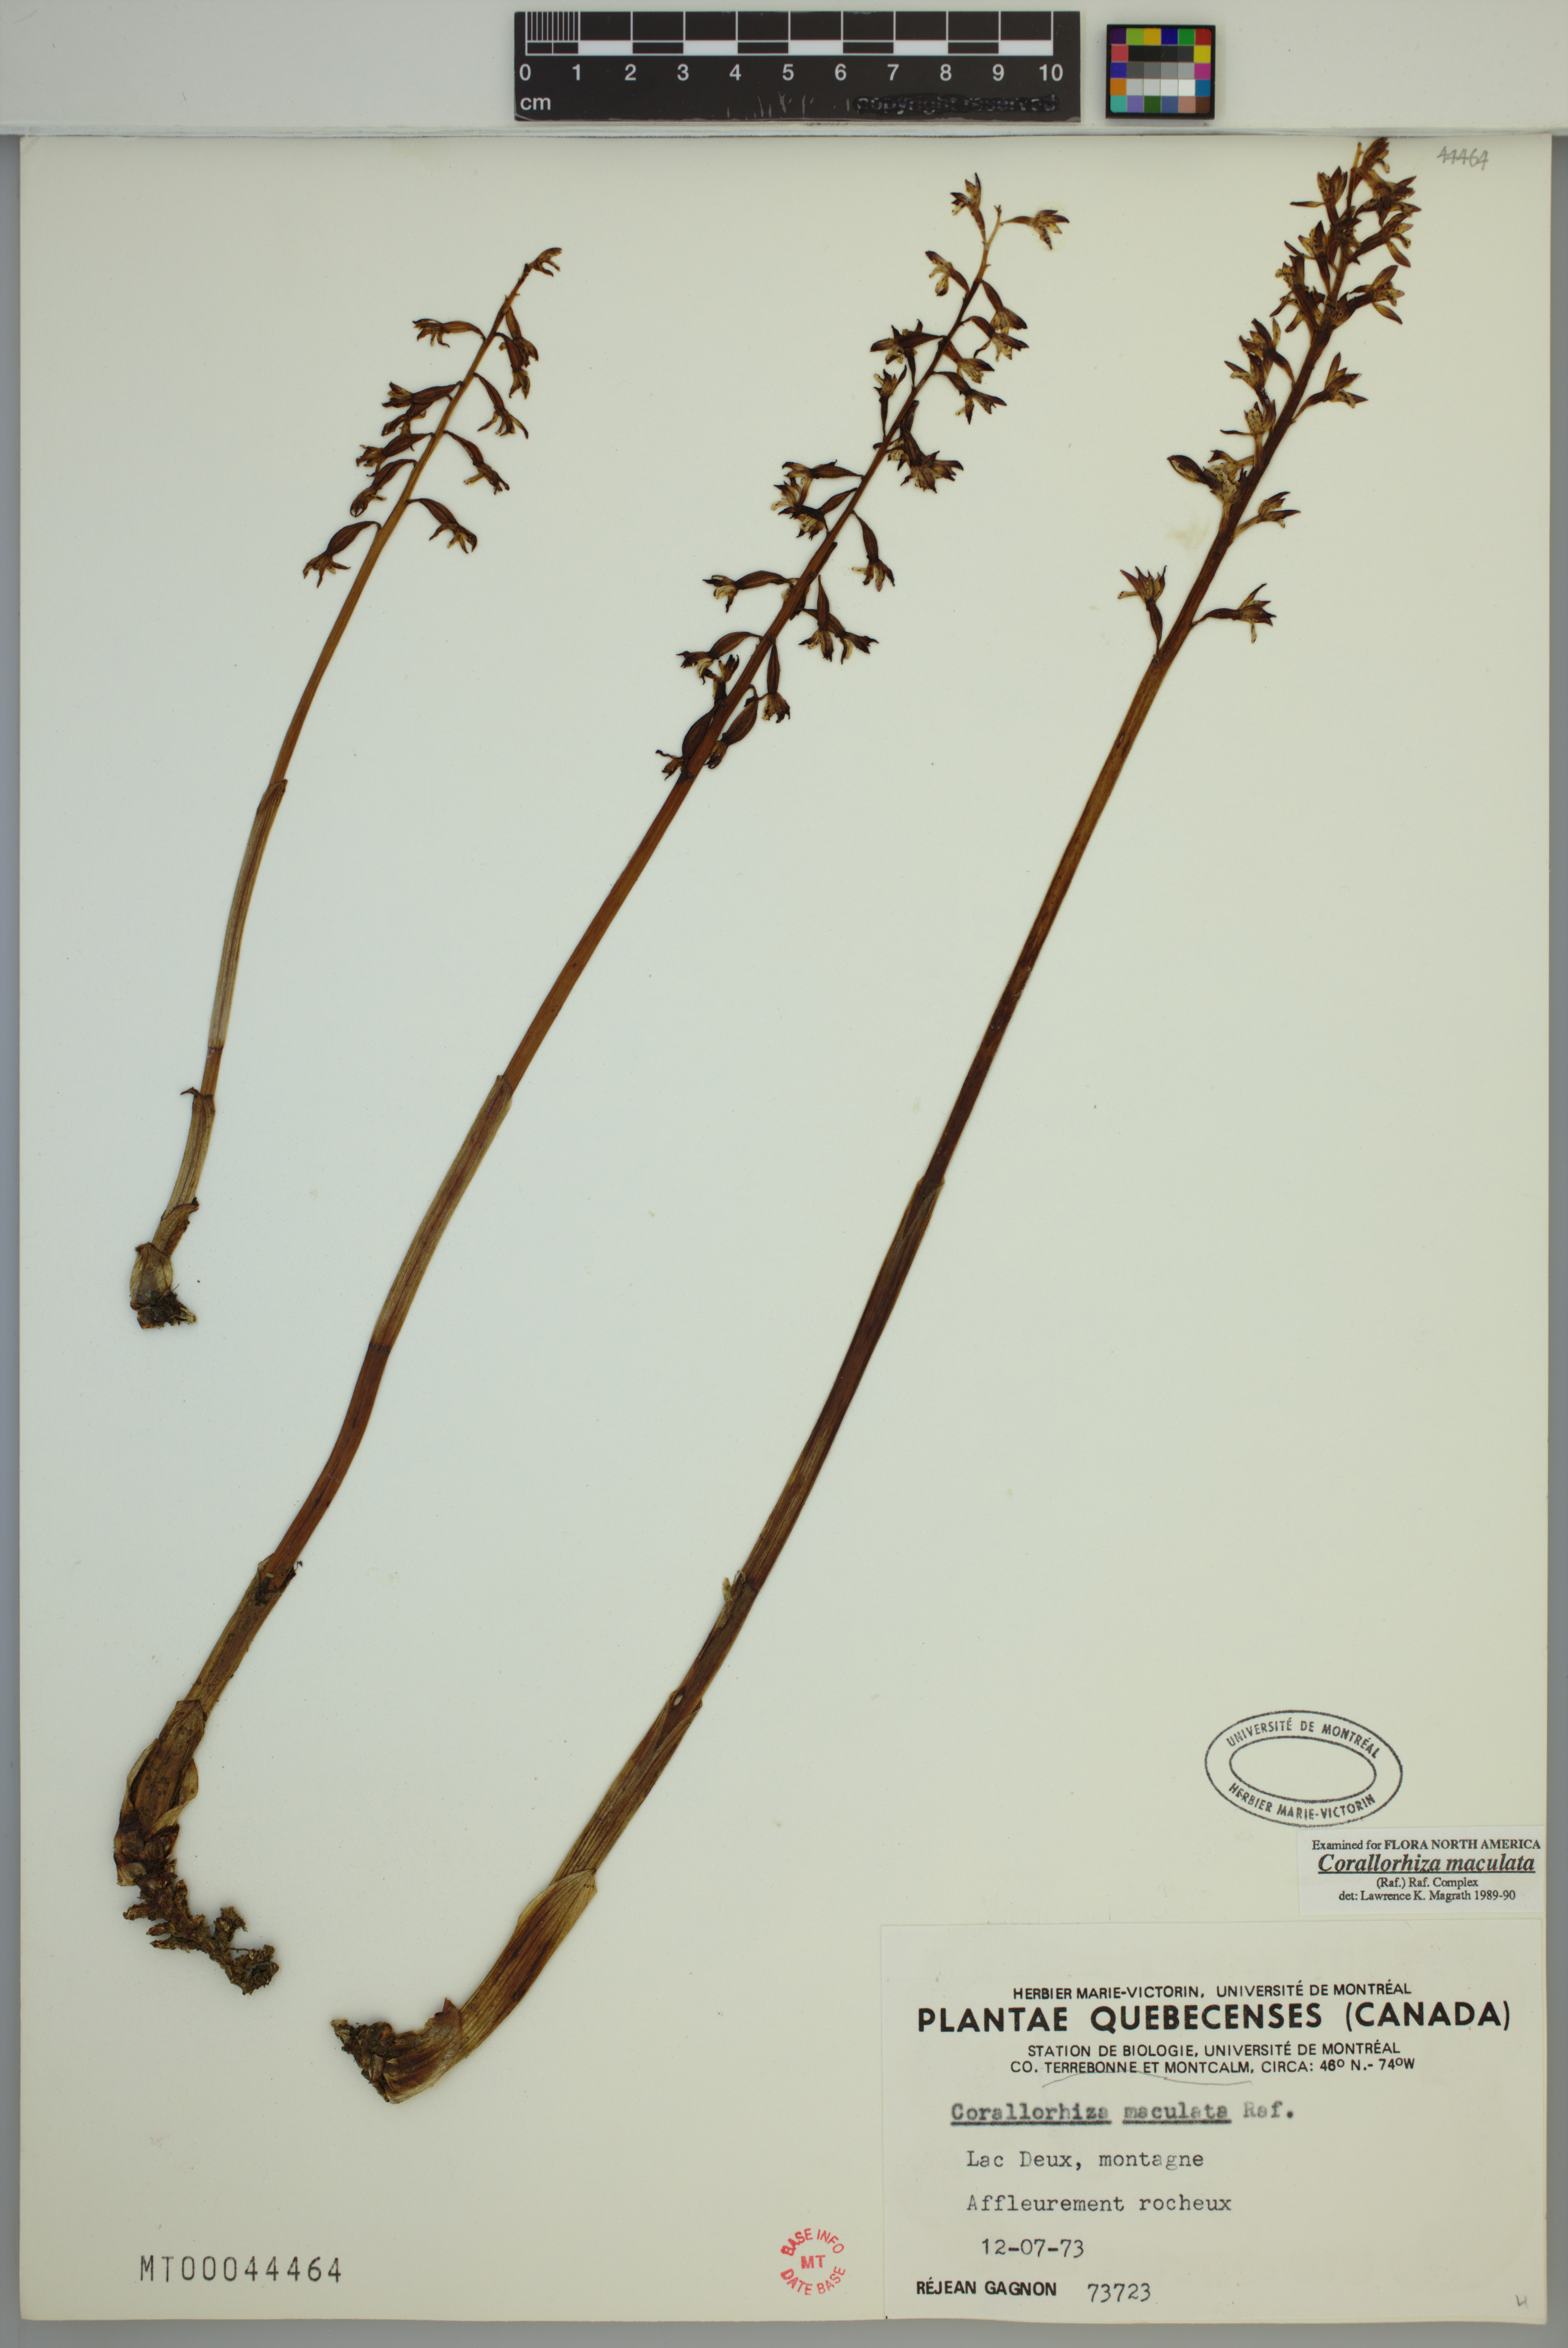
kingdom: Plantae
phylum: Tracheophyta
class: Liliopsida
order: Asparagales
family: Orchidaceae
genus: Corallorhiza
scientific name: Corallorhiza maculata
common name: Spotted coralroot
